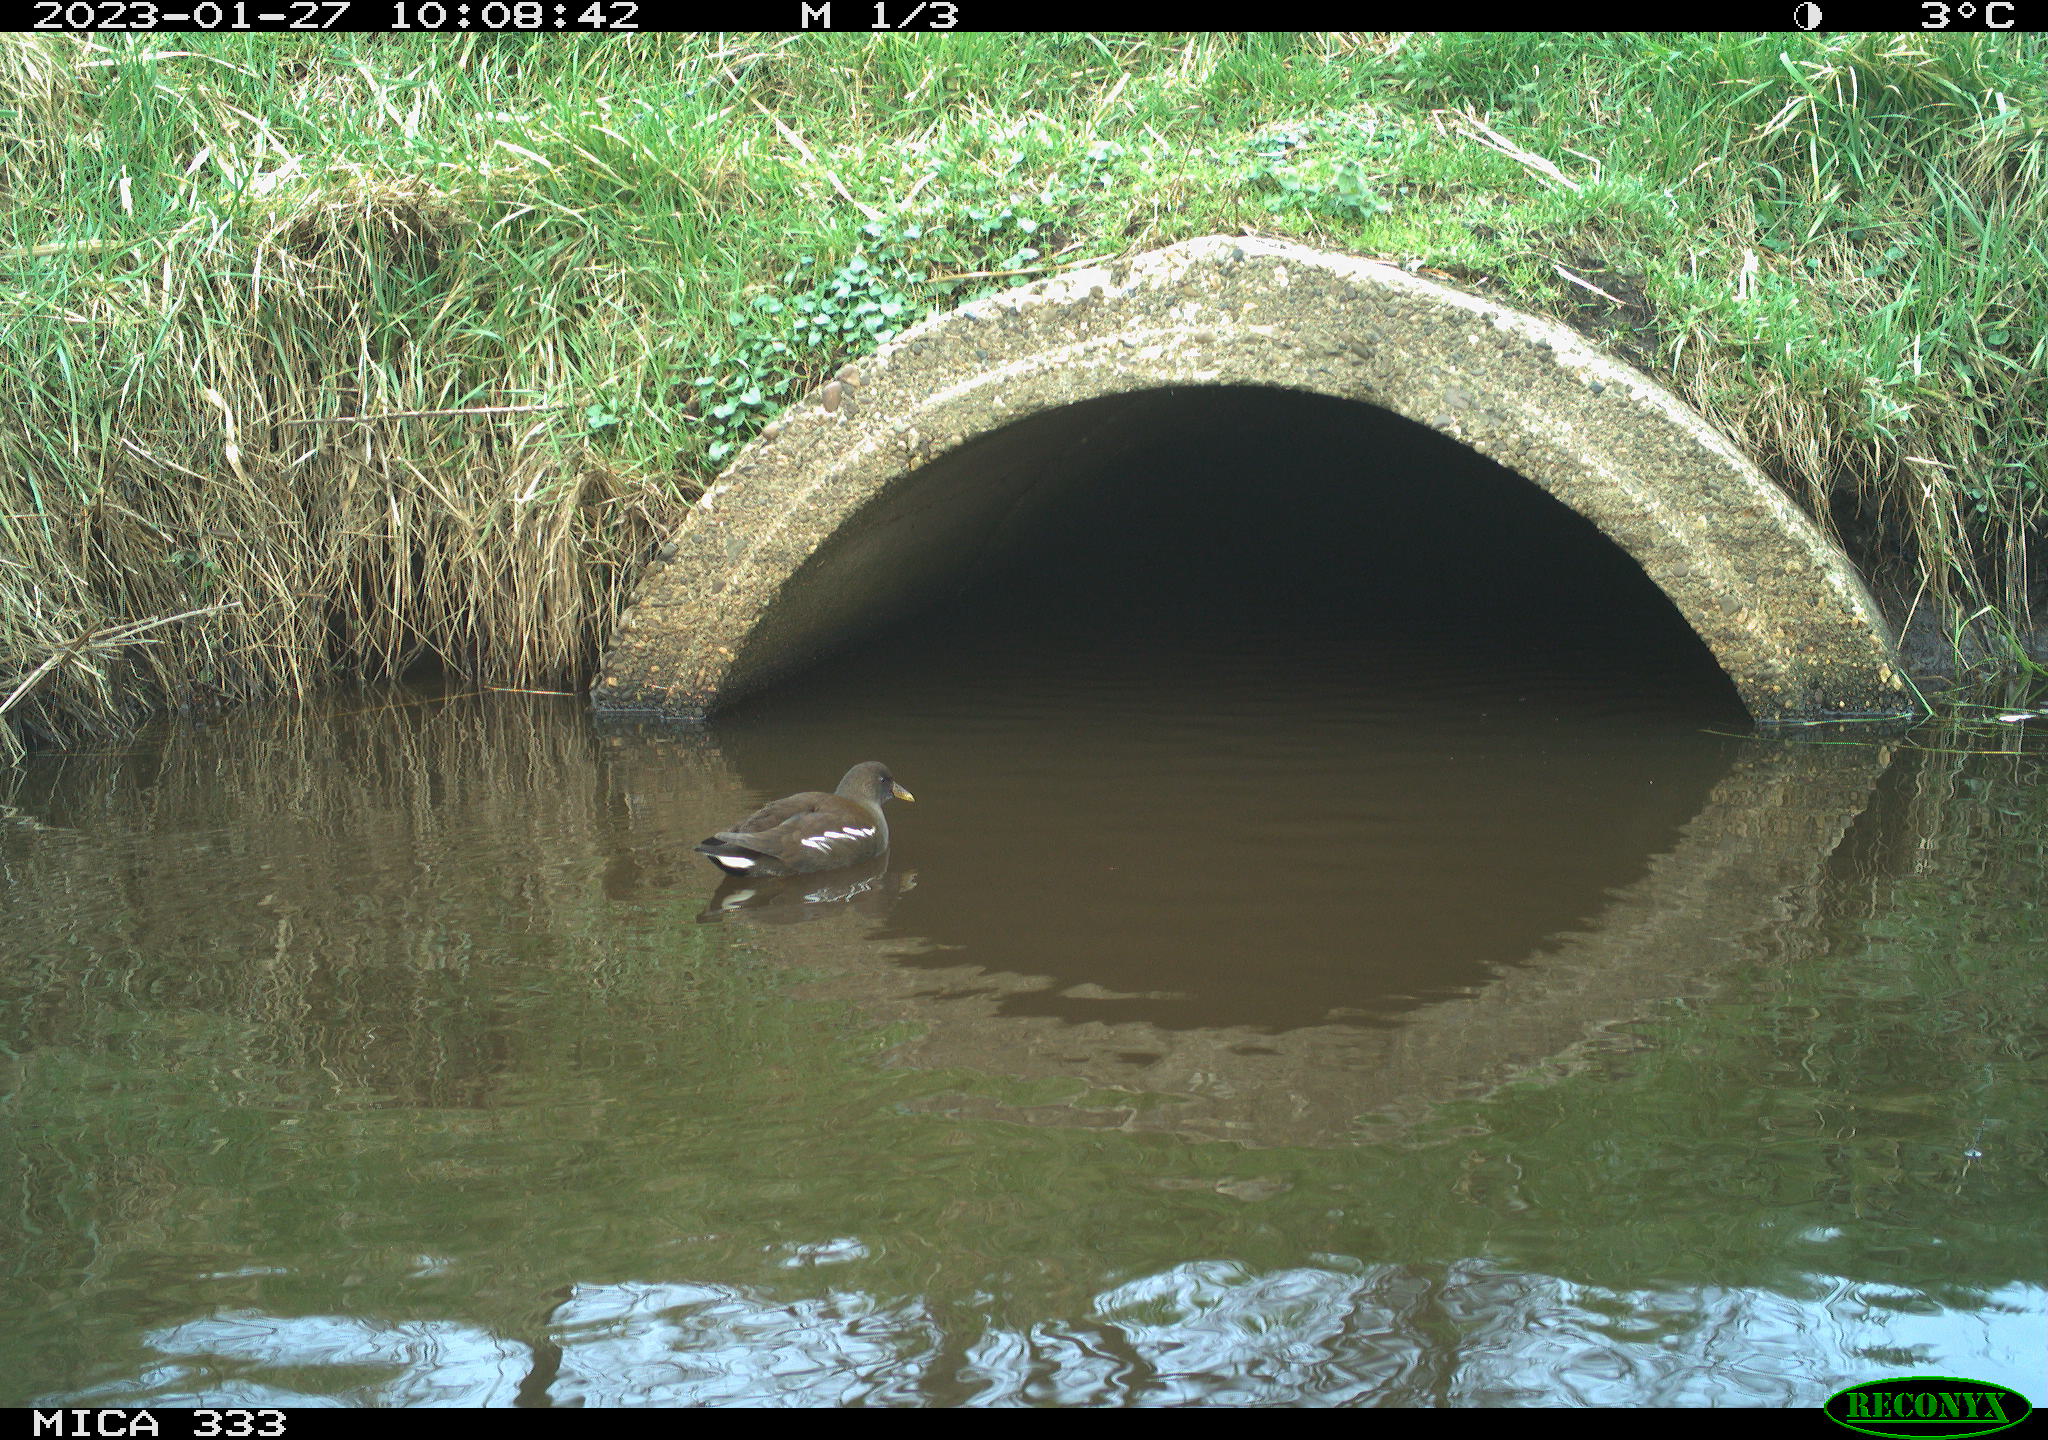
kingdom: Animalia
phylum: Chordata
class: Aves
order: Gruiformes
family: Rallidae
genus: Gallinula
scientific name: Gallinula chloropus
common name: Common moorhen
